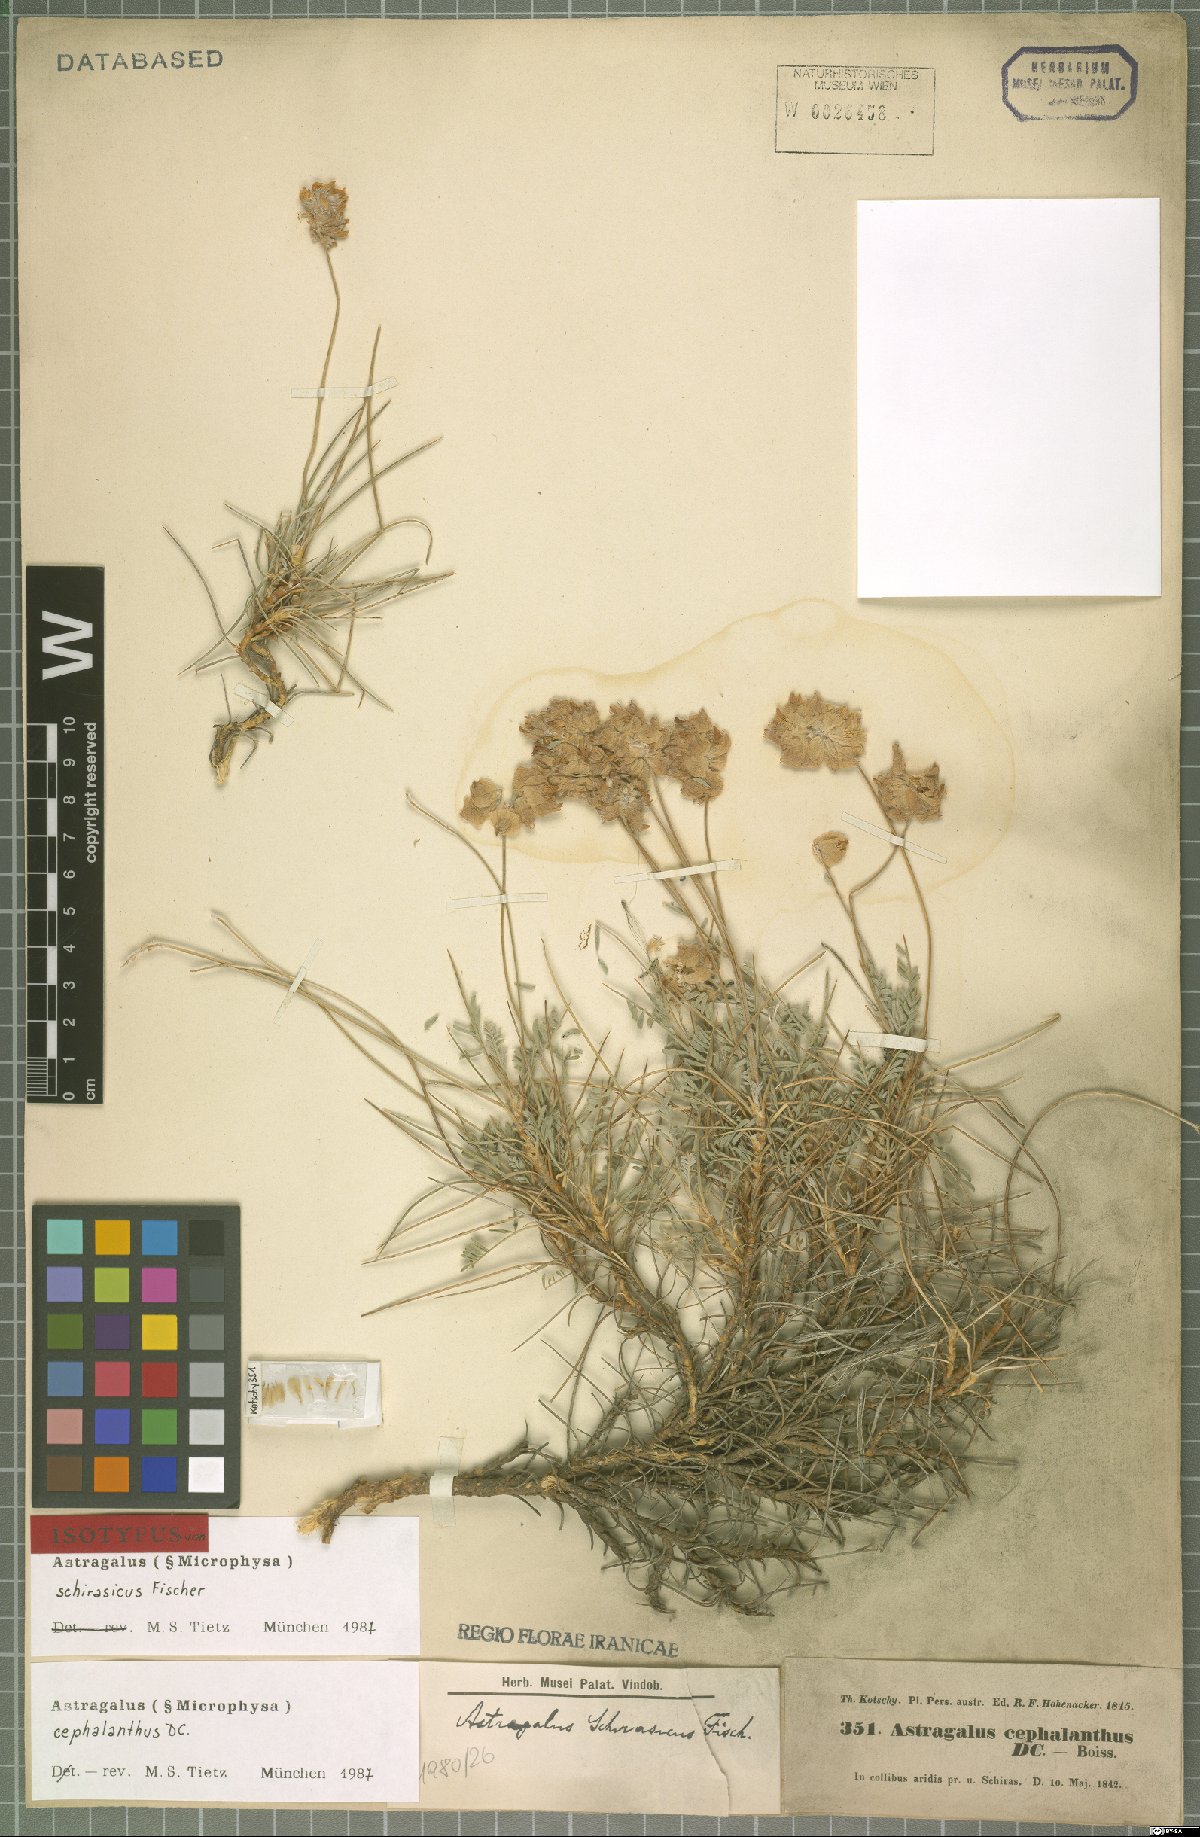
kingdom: Plantae
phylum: Tracheophyta
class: Magnoliopsida
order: Fabales
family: Fabaceae
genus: Astragalus
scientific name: Astragalus cephalanthus
